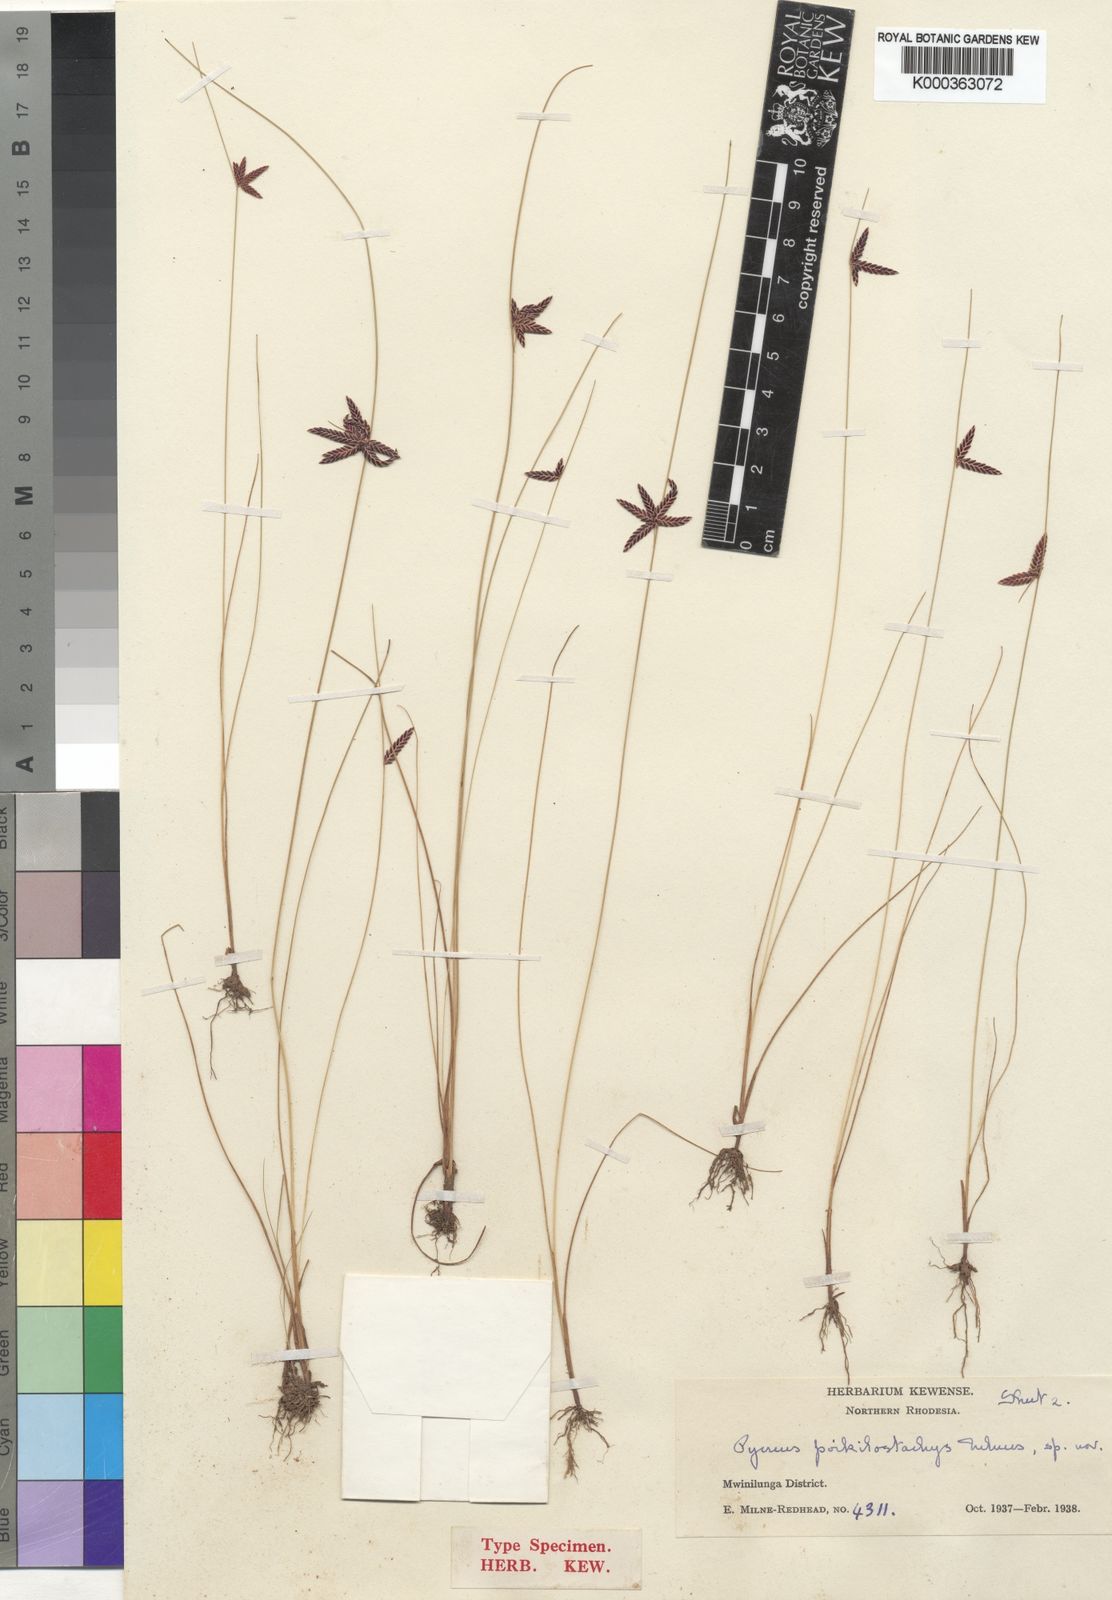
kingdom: Plantae
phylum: Tracheophyta
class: Liliopsida
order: Poales
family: Cyperaceae
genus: Cyperus
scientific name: Cyperus poikilostachys
